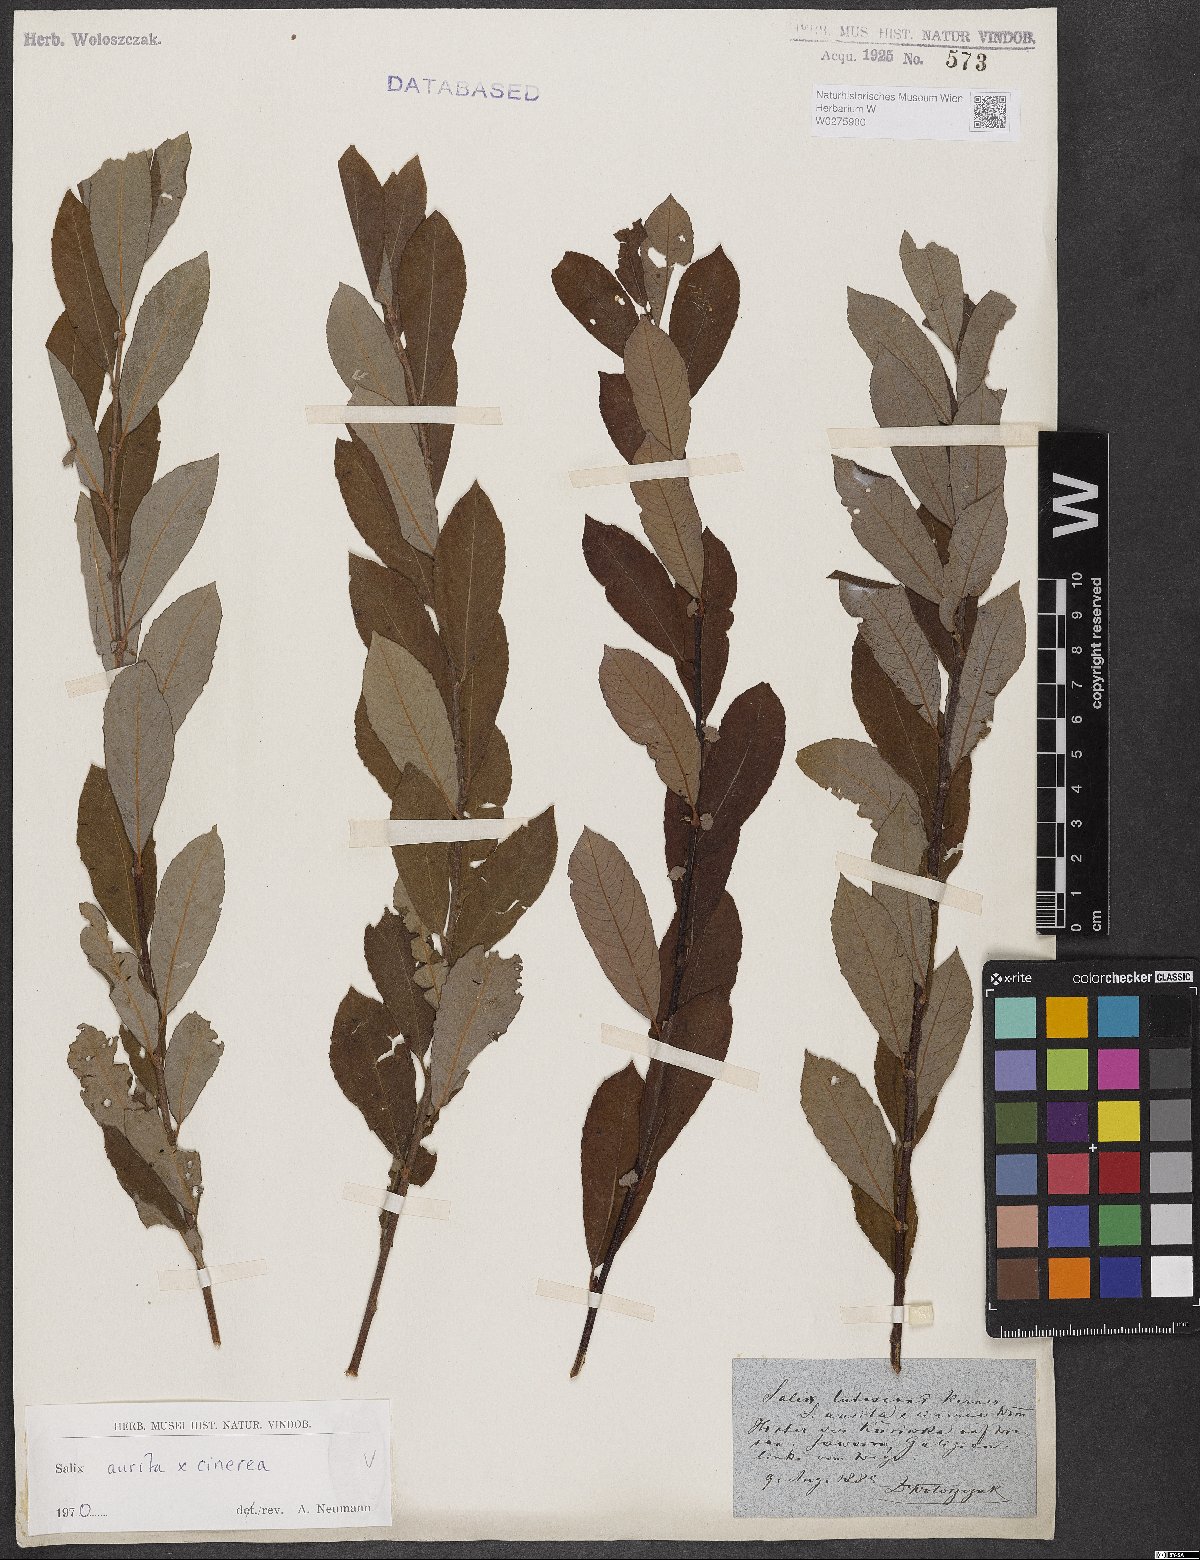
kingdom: Plantae
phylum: Tracheophyta
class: Magnoliopsida
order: Malpighiales
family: Salicaceae
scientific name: Salicaceae
